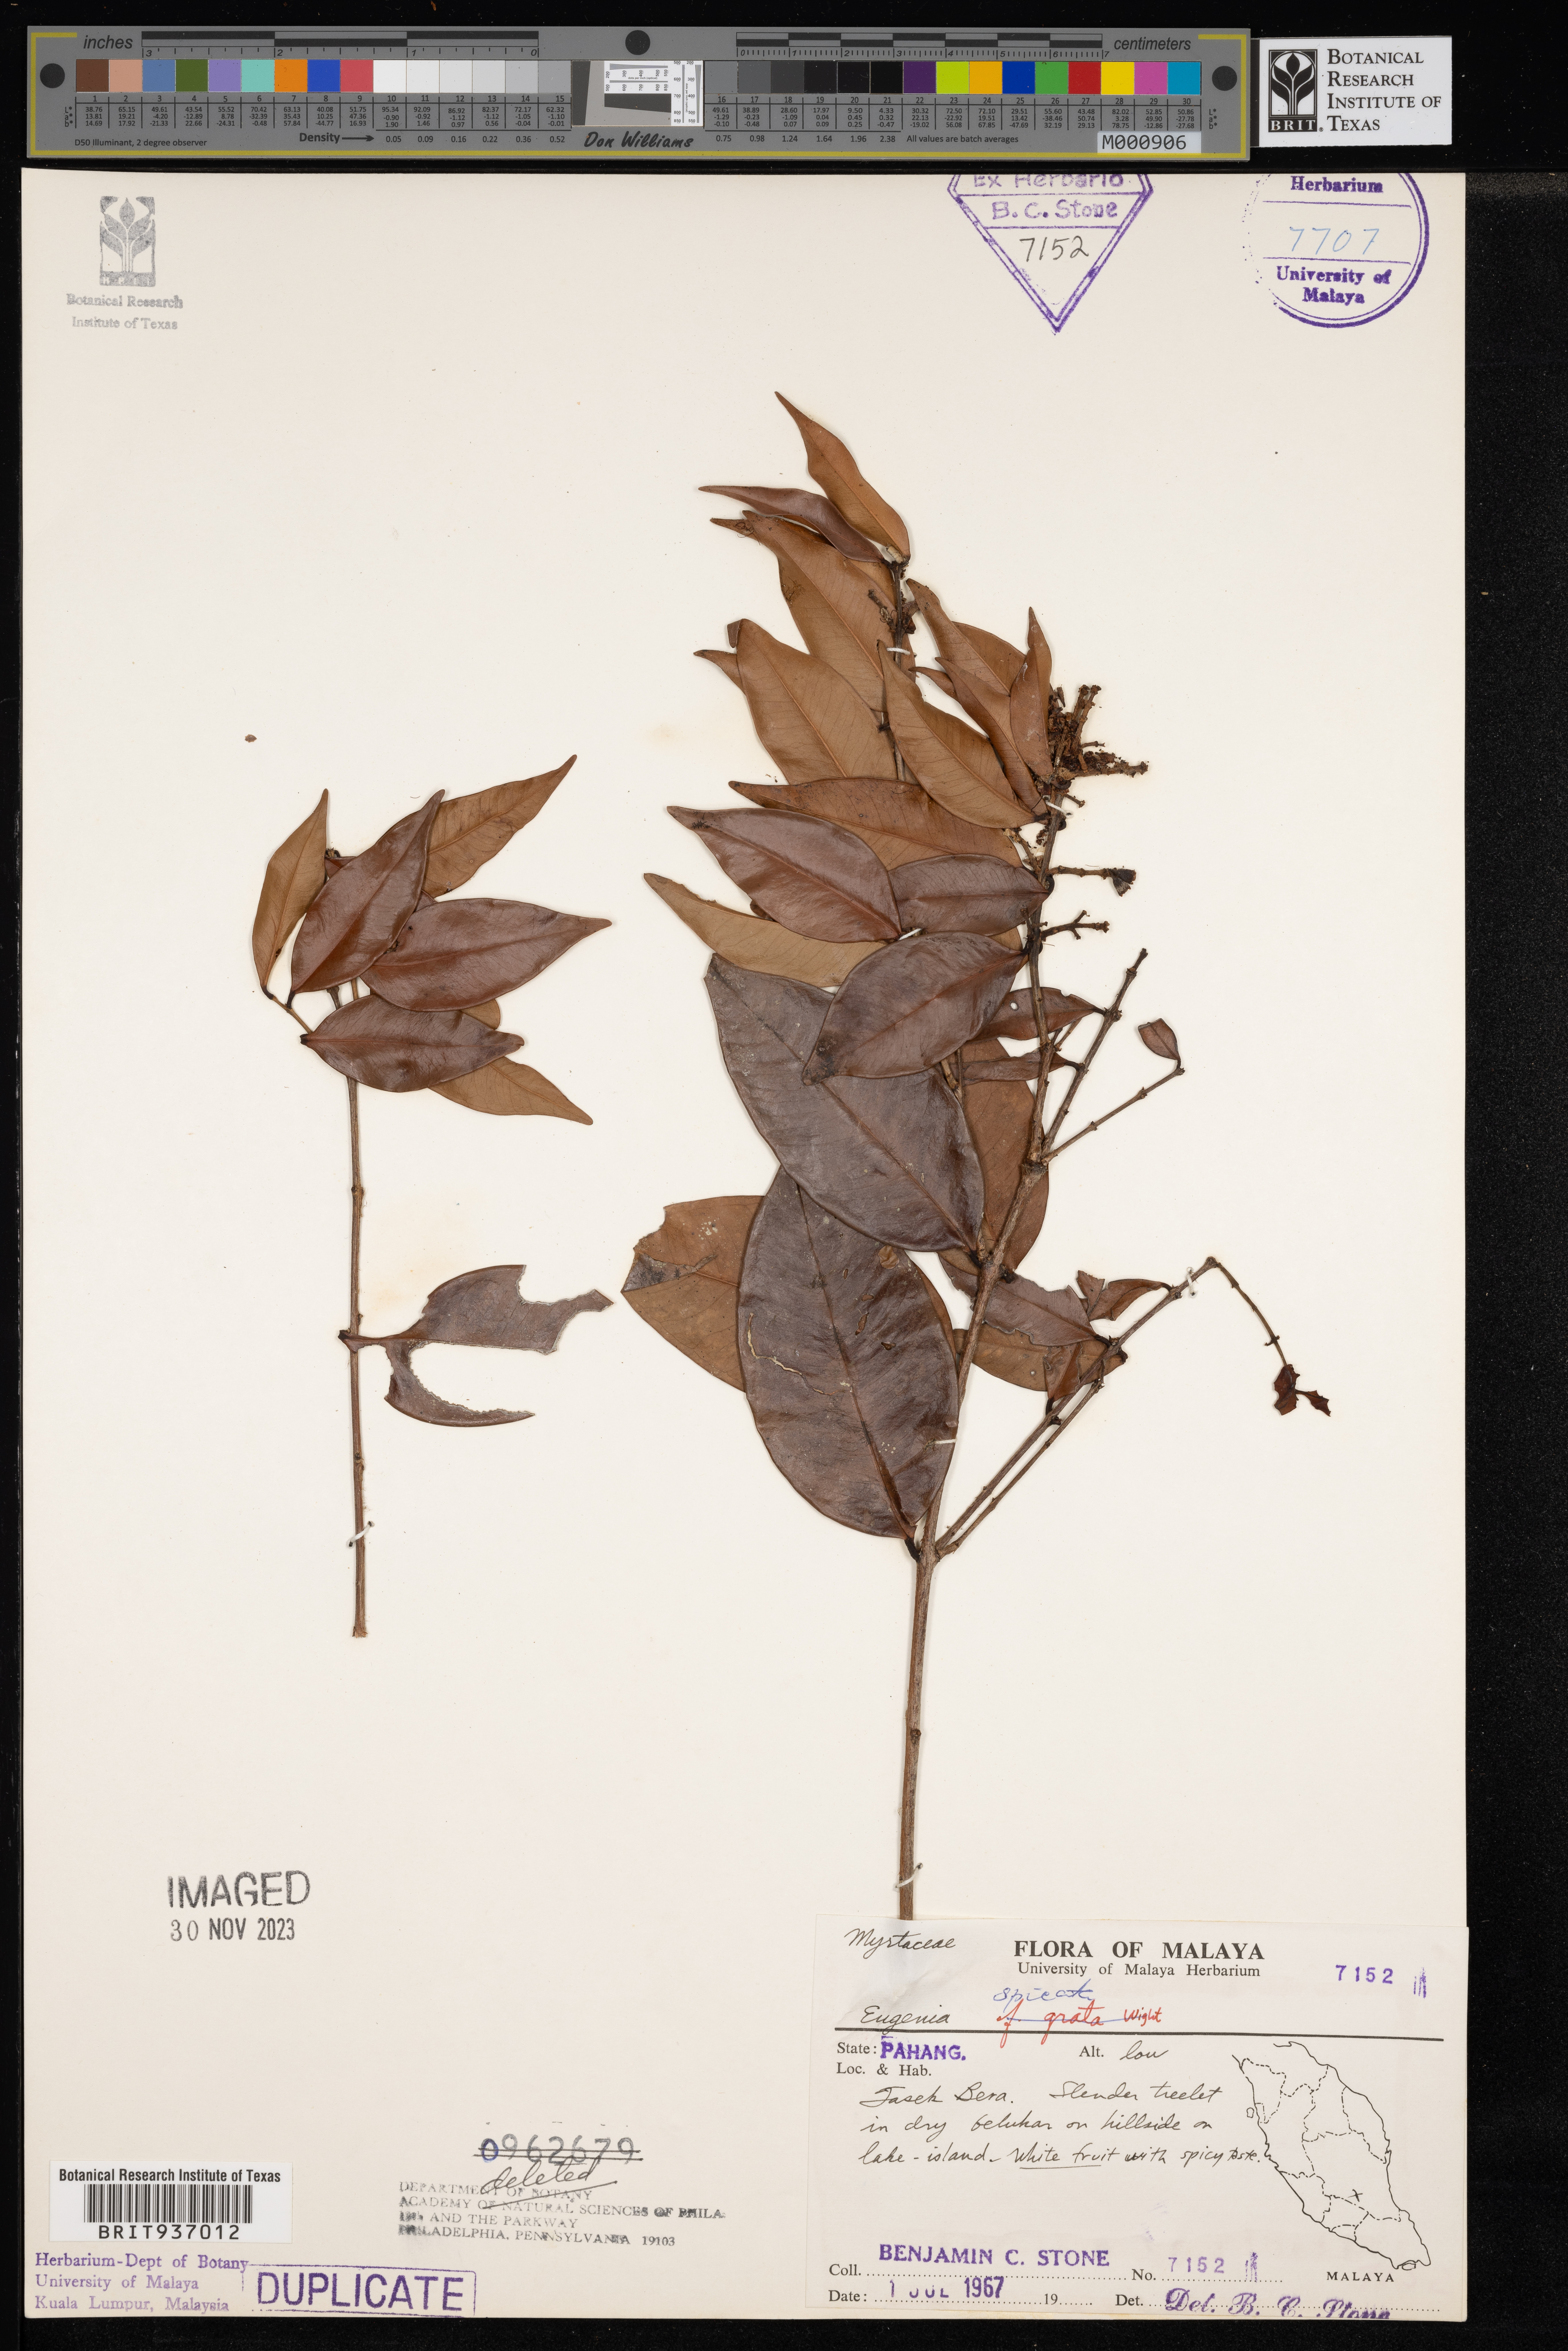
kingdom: Plantae
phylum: Tracheophyta
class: Magnoliopsida
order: Myrtales
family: Myrtaceae
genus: Eugenia
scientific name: Eugenia
